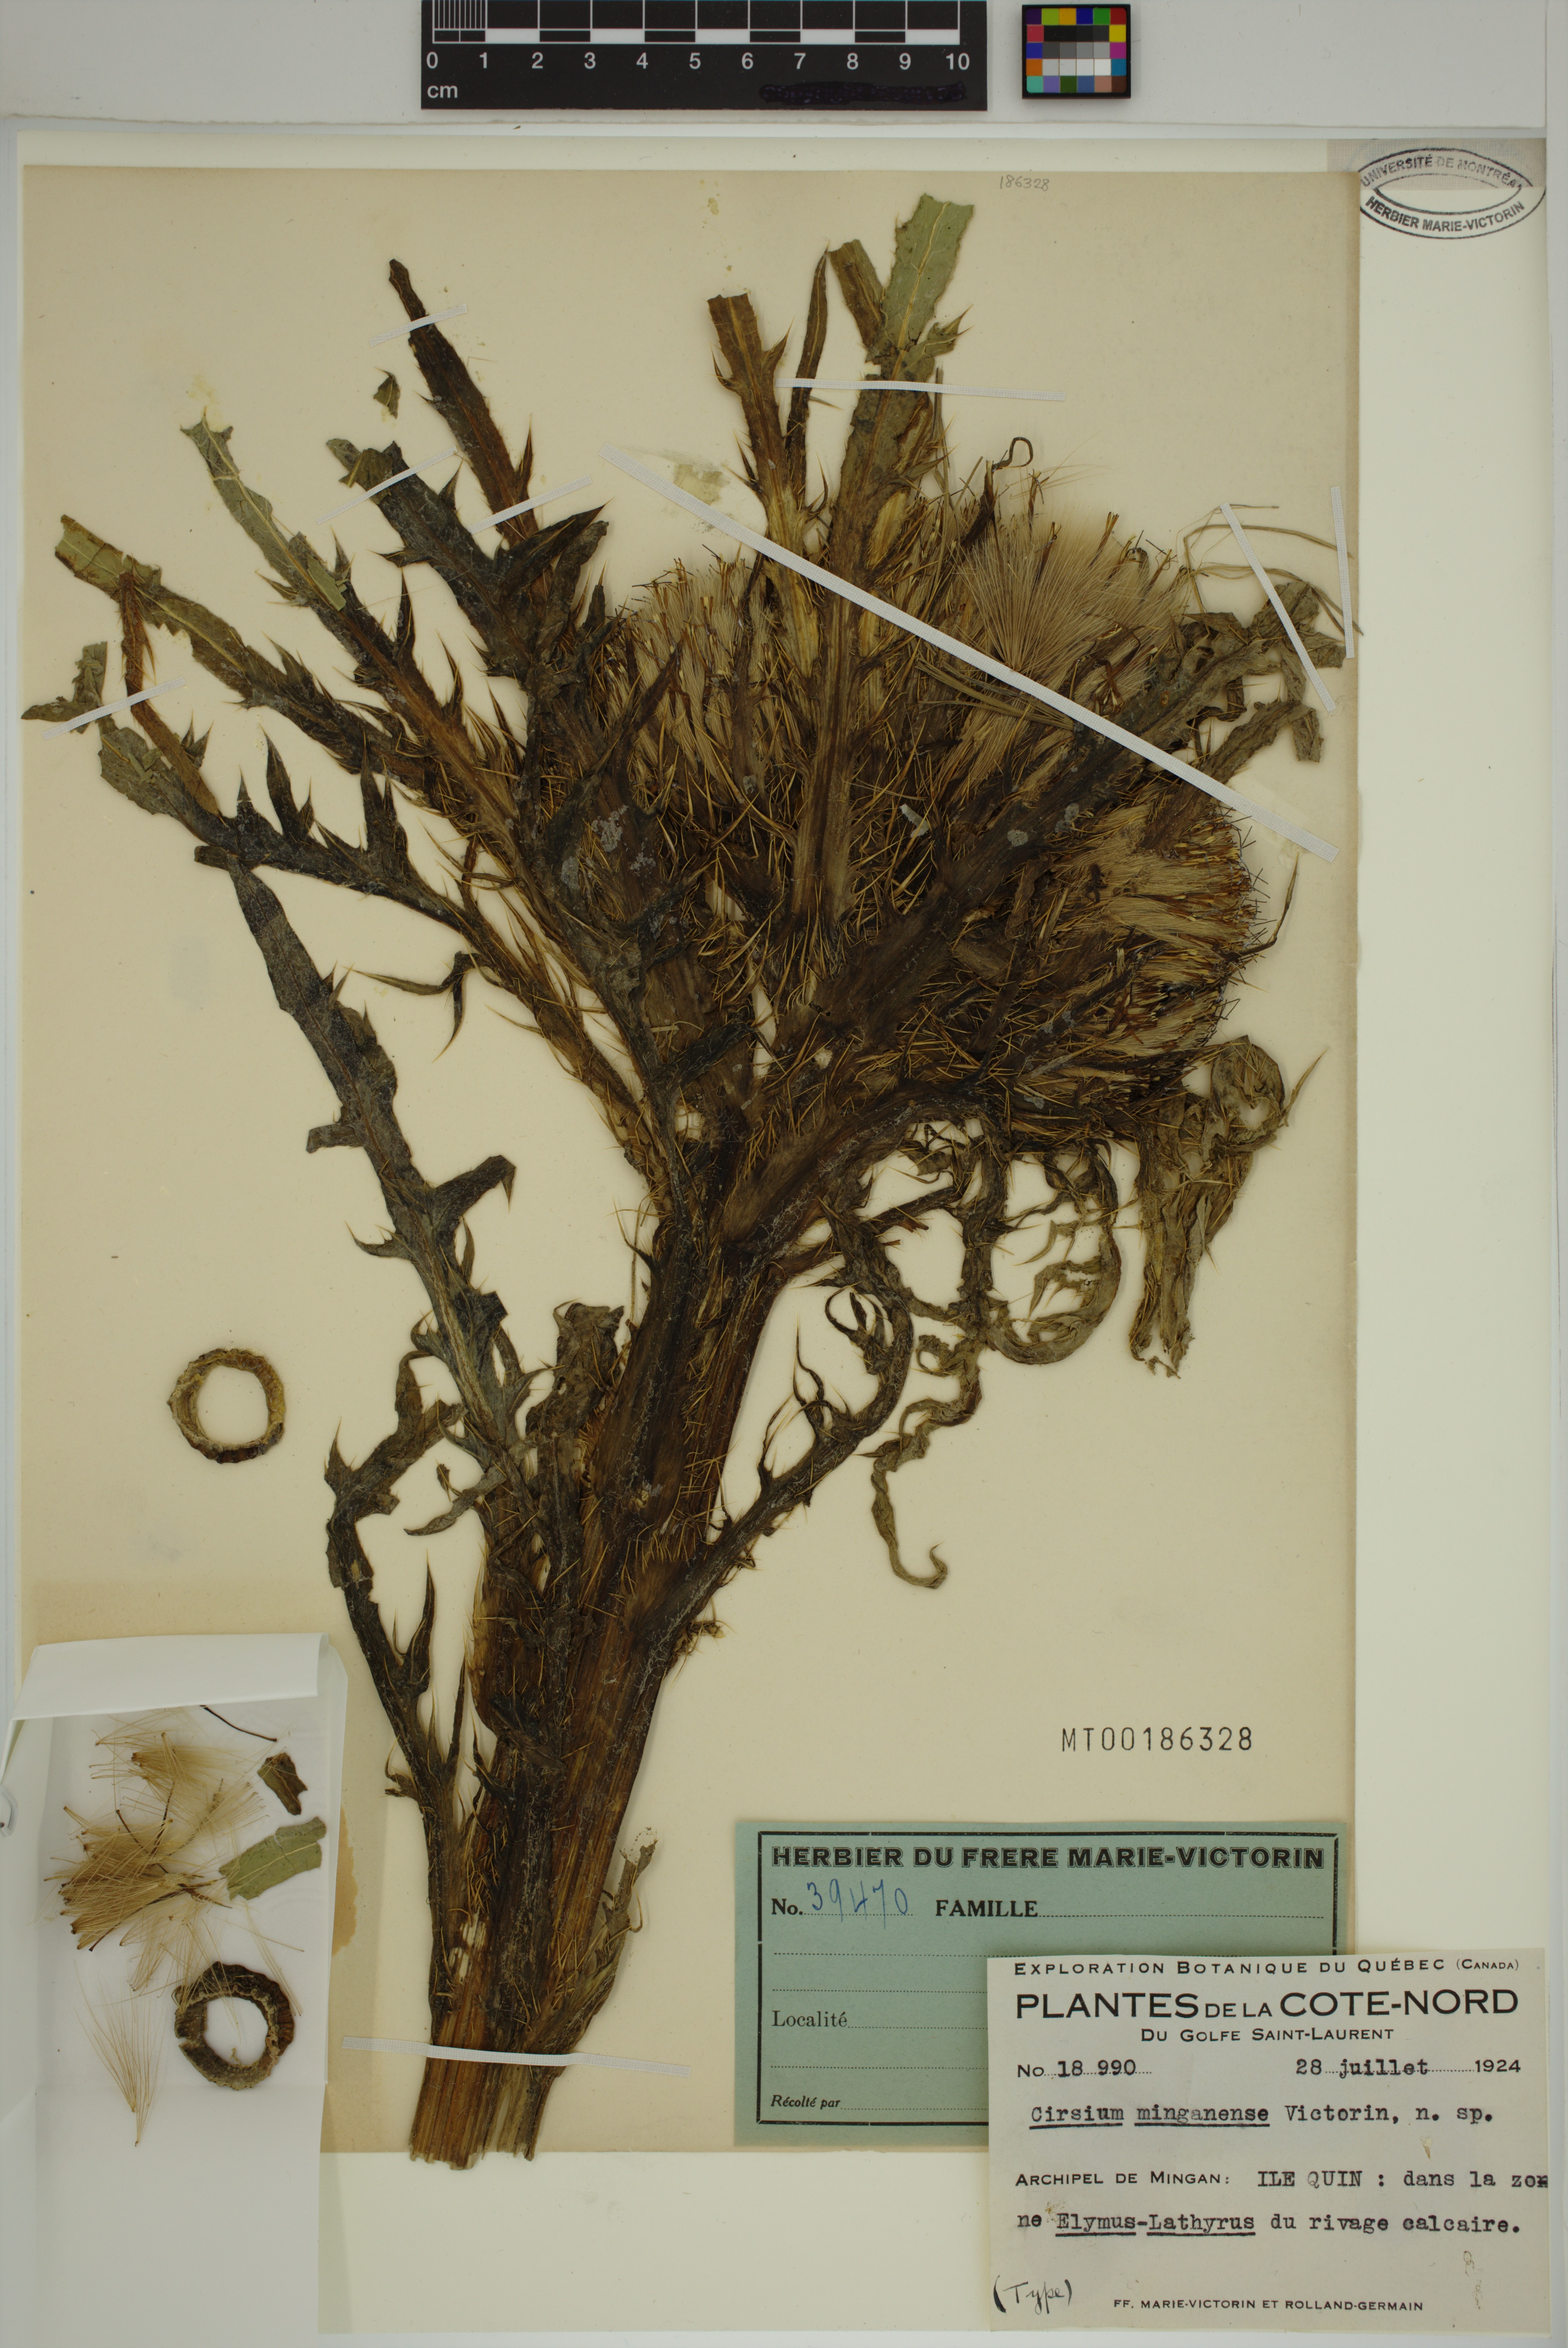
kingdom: Plantae
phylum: Tracheophyta
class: Magnoliopsida
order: Asterales
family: Asteraceae
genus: Cirsium
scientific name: Cirsium scariosum
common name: Meadow thistle
